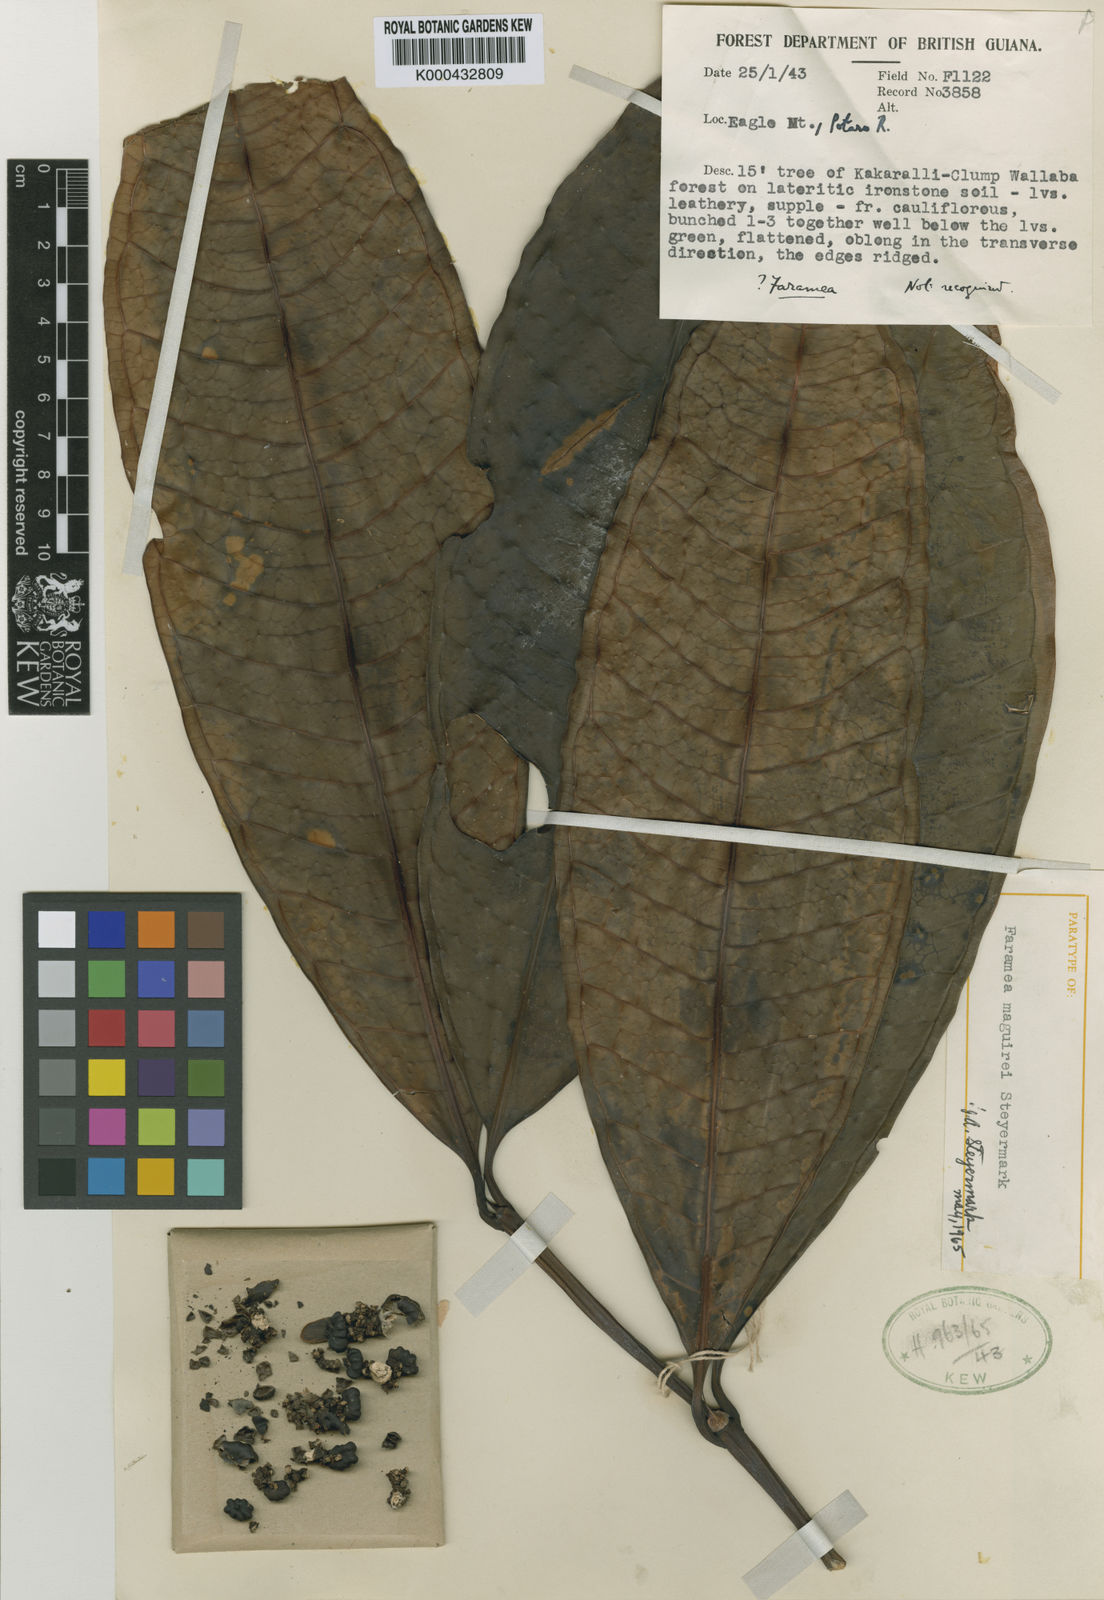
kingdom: Plantae
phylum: Tracheophyta
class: Magnoliopsida
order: Gentianales
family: Rubiaceae
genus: Faramea
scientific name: Faramea maguirei
